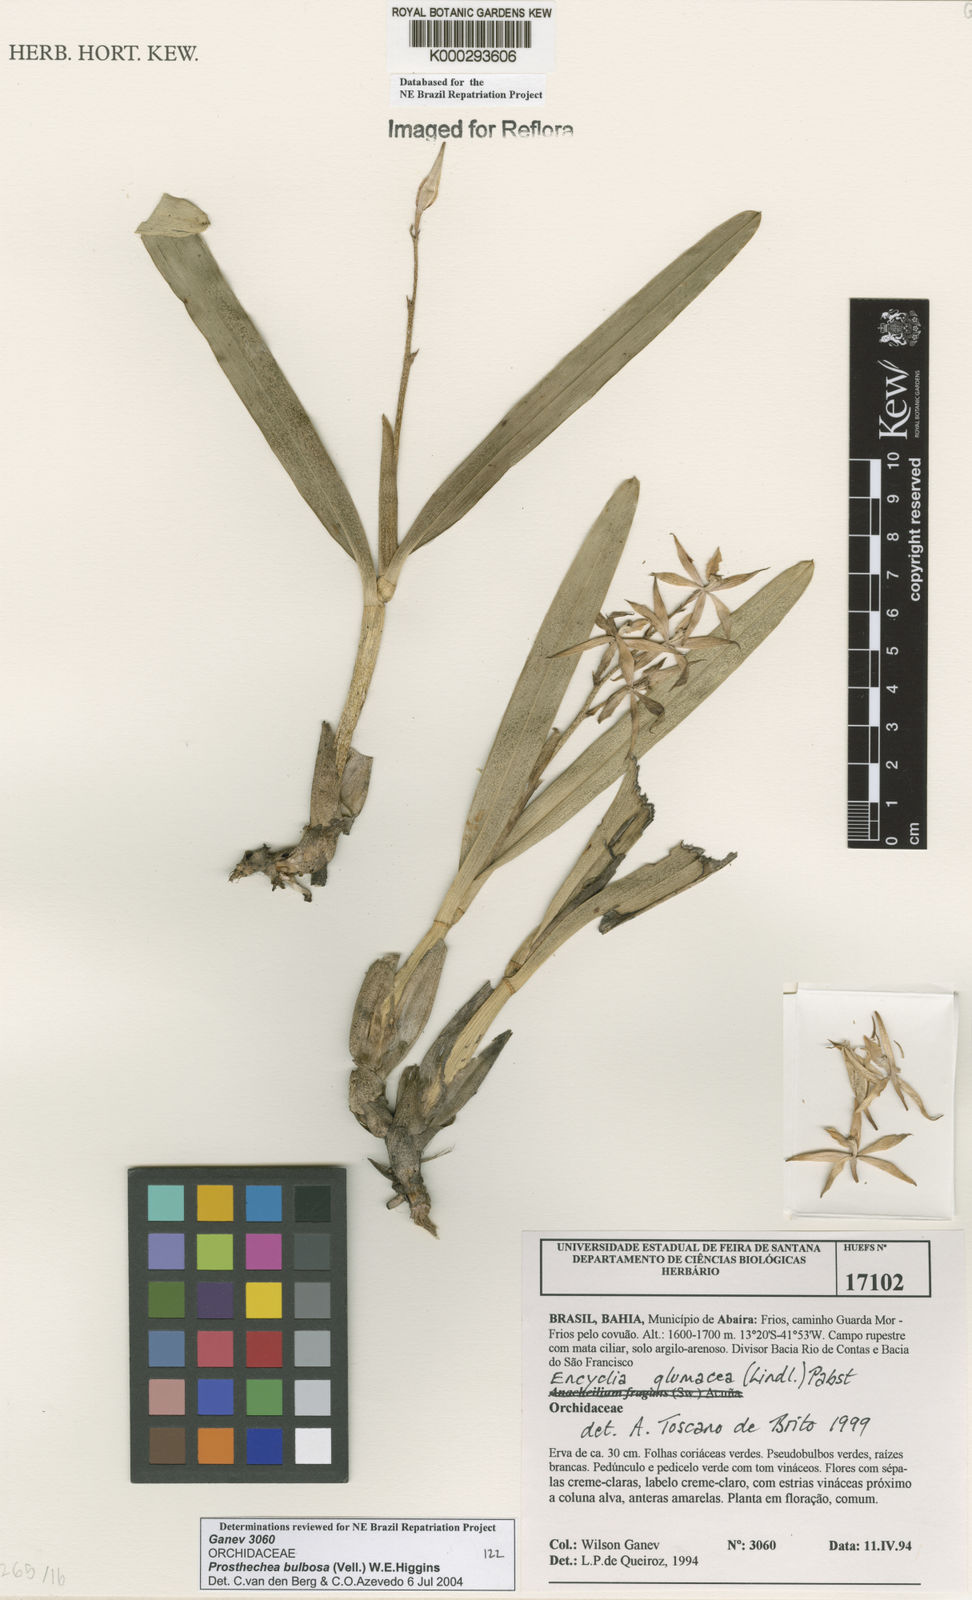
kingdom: Plantae
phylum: Tracheophyta
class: Liliopsida
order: Asparagales
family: Orchidaceae
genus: Prosthechea
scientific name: Prosthechea bulbosa
